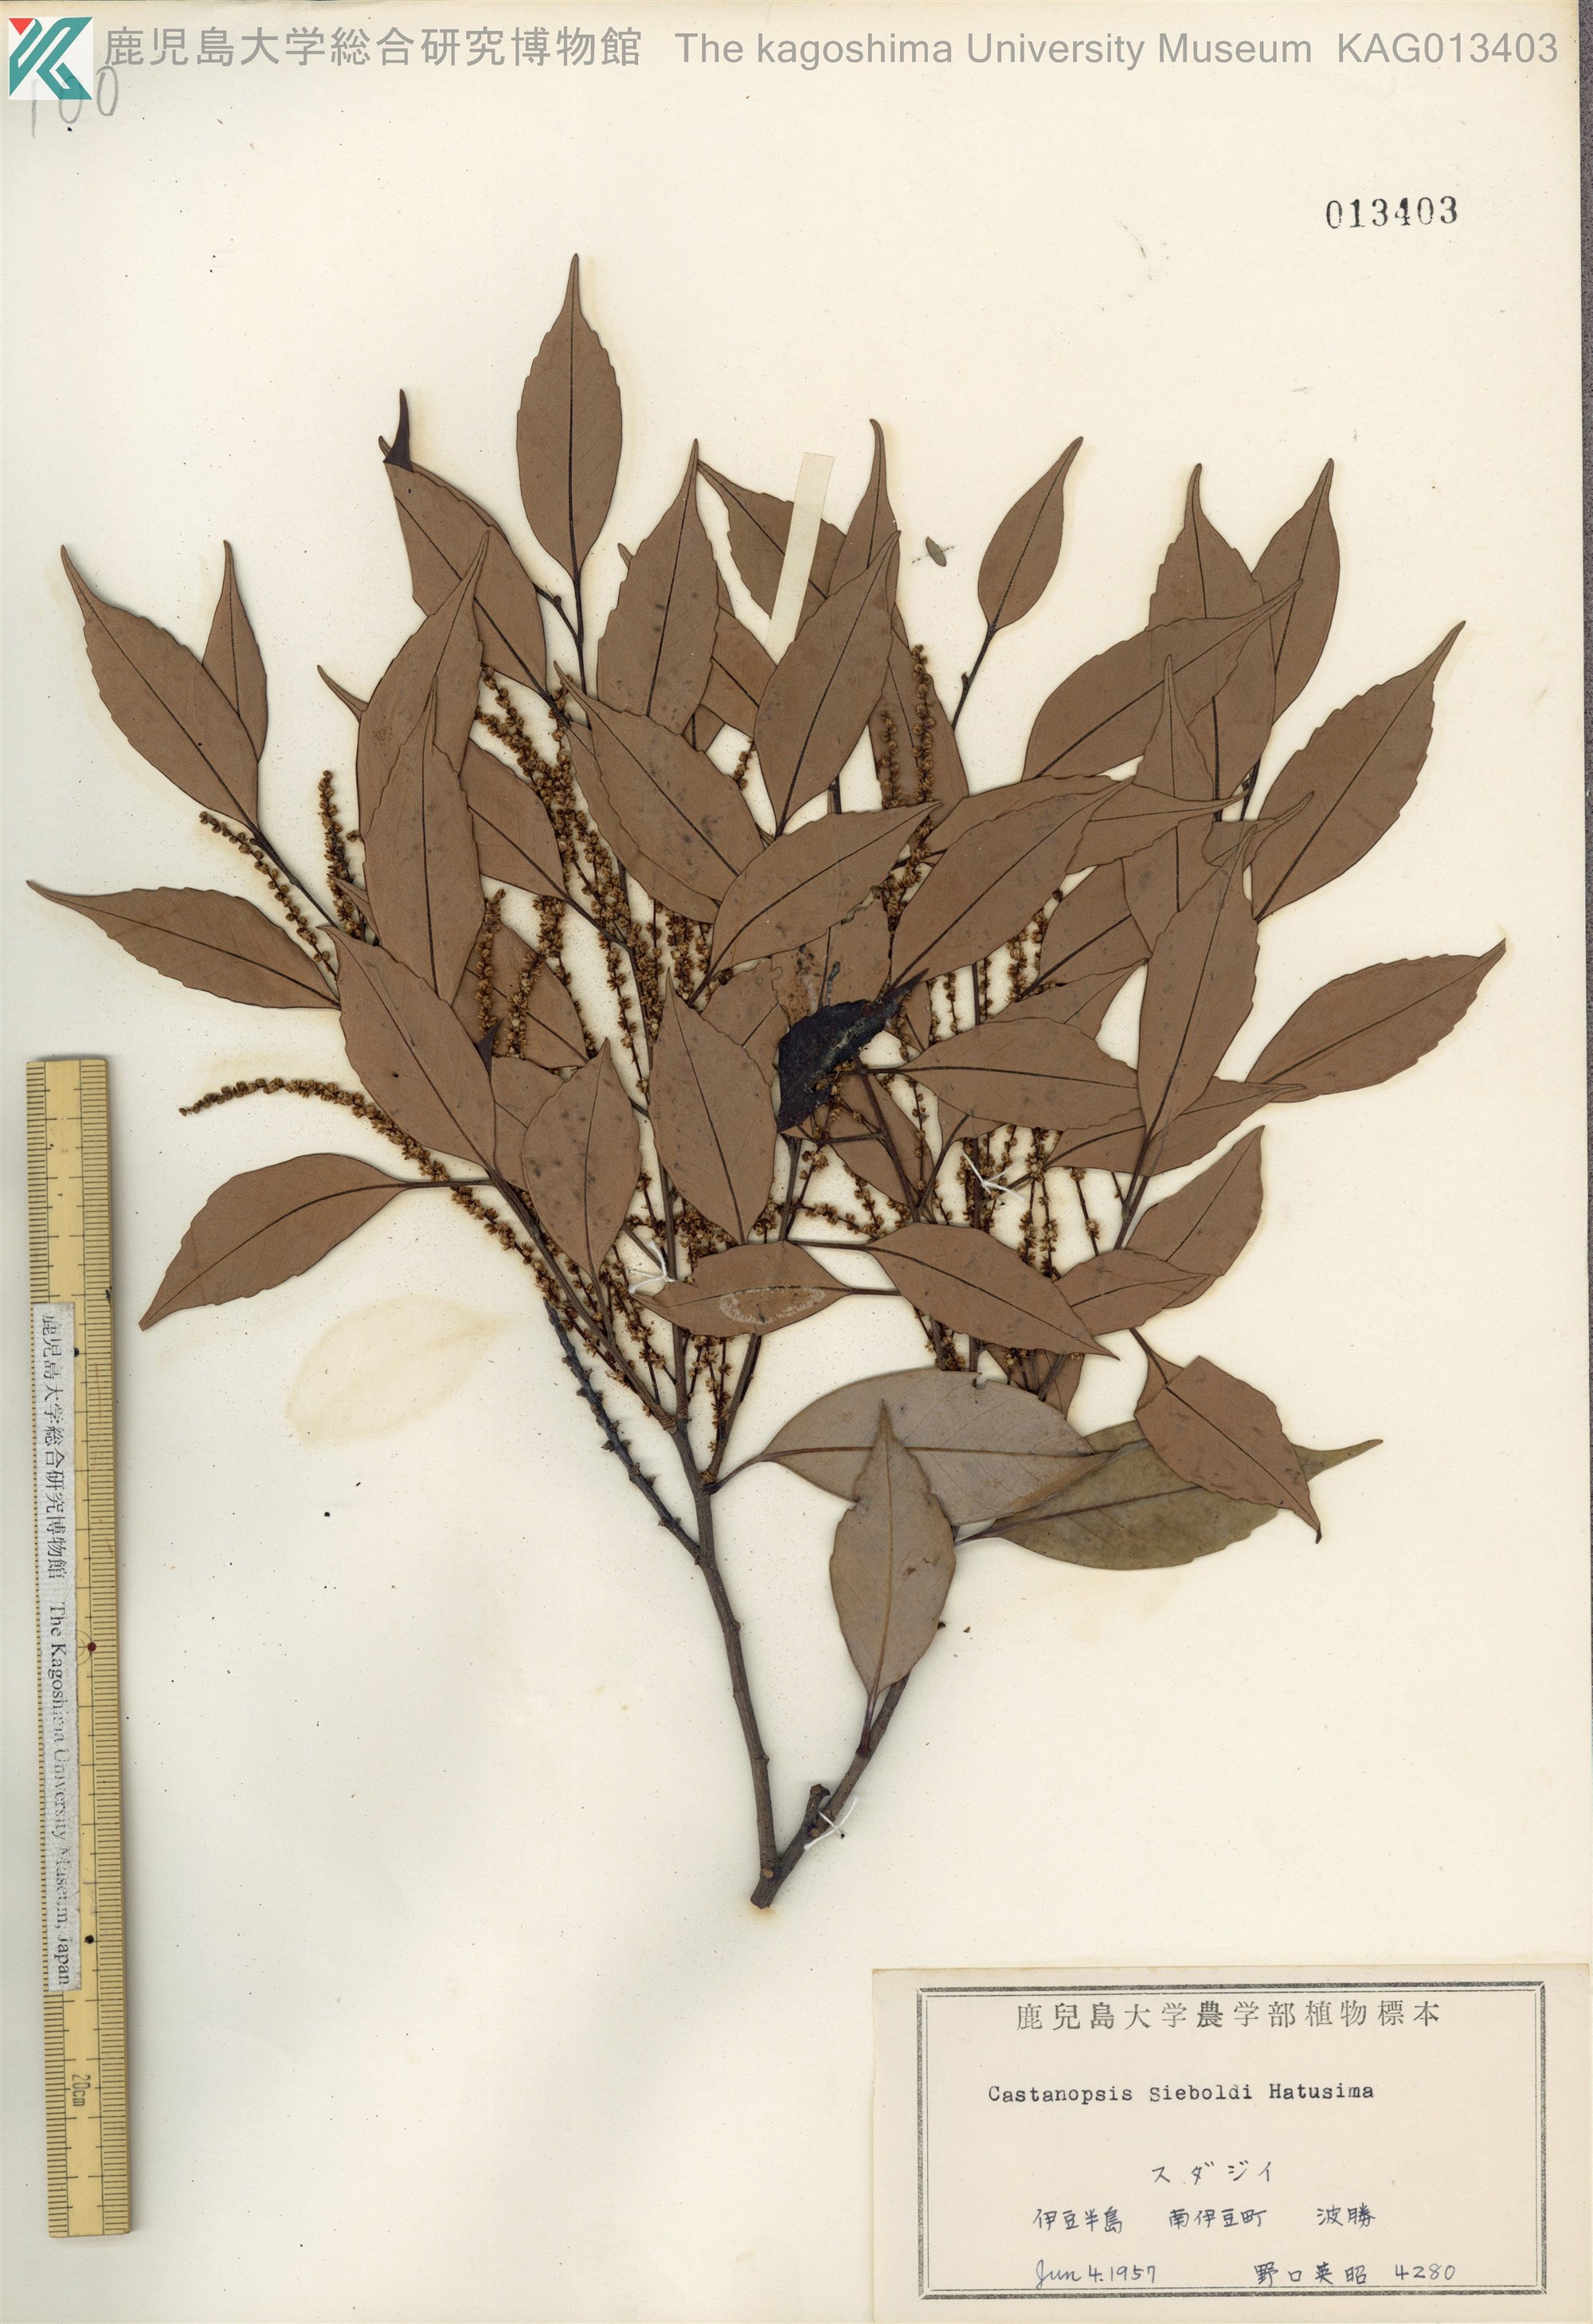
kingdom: Plantae
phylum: Tracheophyta
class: Magnoliopsida
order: Fagales
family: Fagaceae
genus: Castanopsis
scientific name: Castanopsis sieboldii
